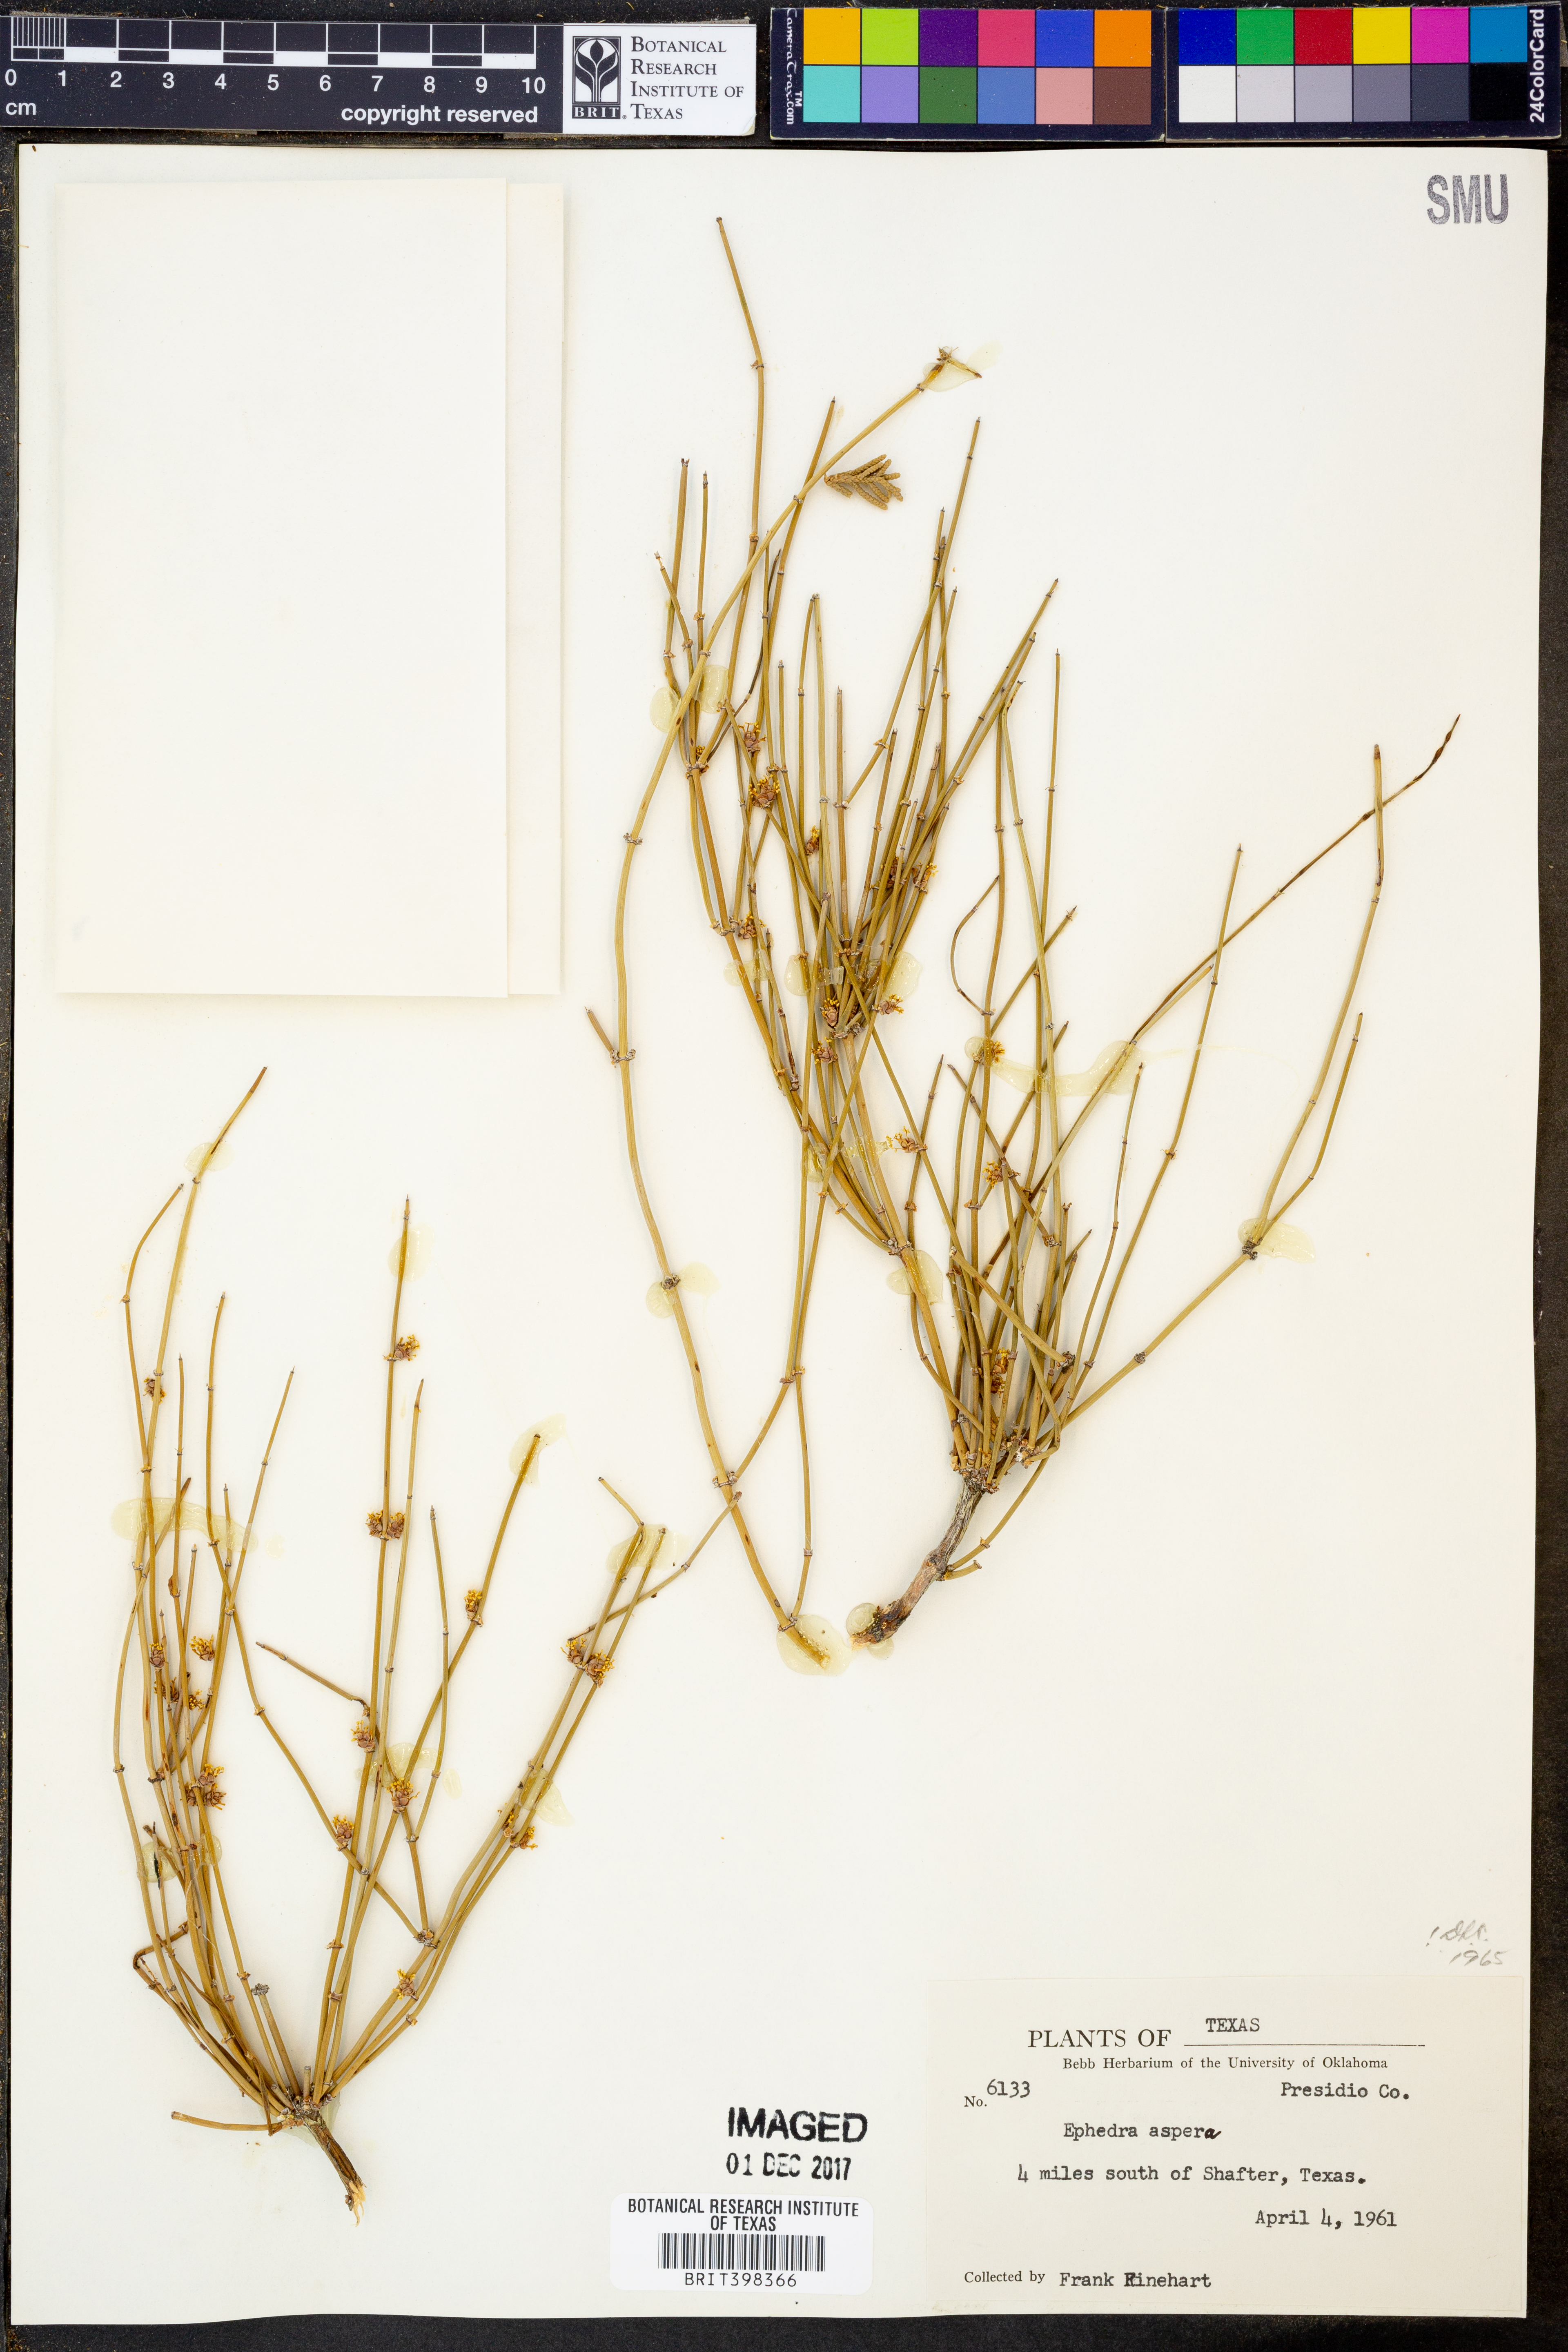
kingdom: Plantae
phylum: Tracheophyta
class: Gnetopsida
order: Ephedrales
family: Ephedraceae
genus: Ephedra
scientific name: Ephedra aspera
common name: Boundary ephedra
